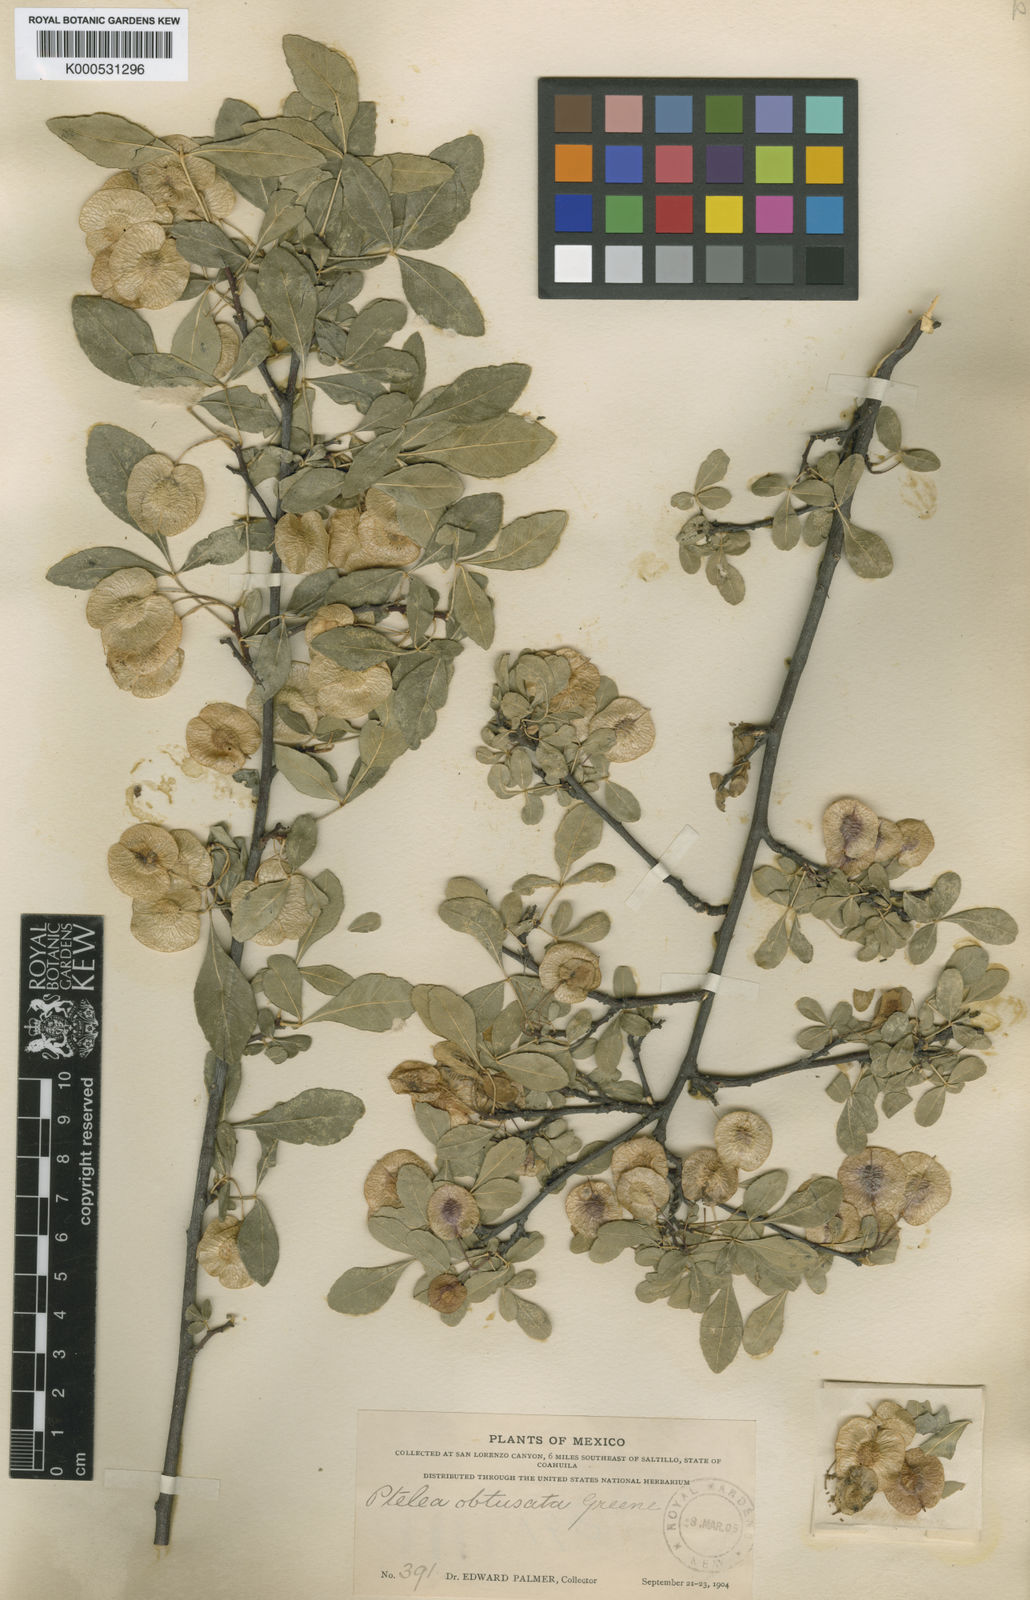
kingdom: Plantae
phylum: Tracheophyta
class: Magnoliopsida
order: Sapindales
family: Rutaceae
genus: Ptelea
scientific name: Ptelea trifoliata
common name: Common hop-tree
